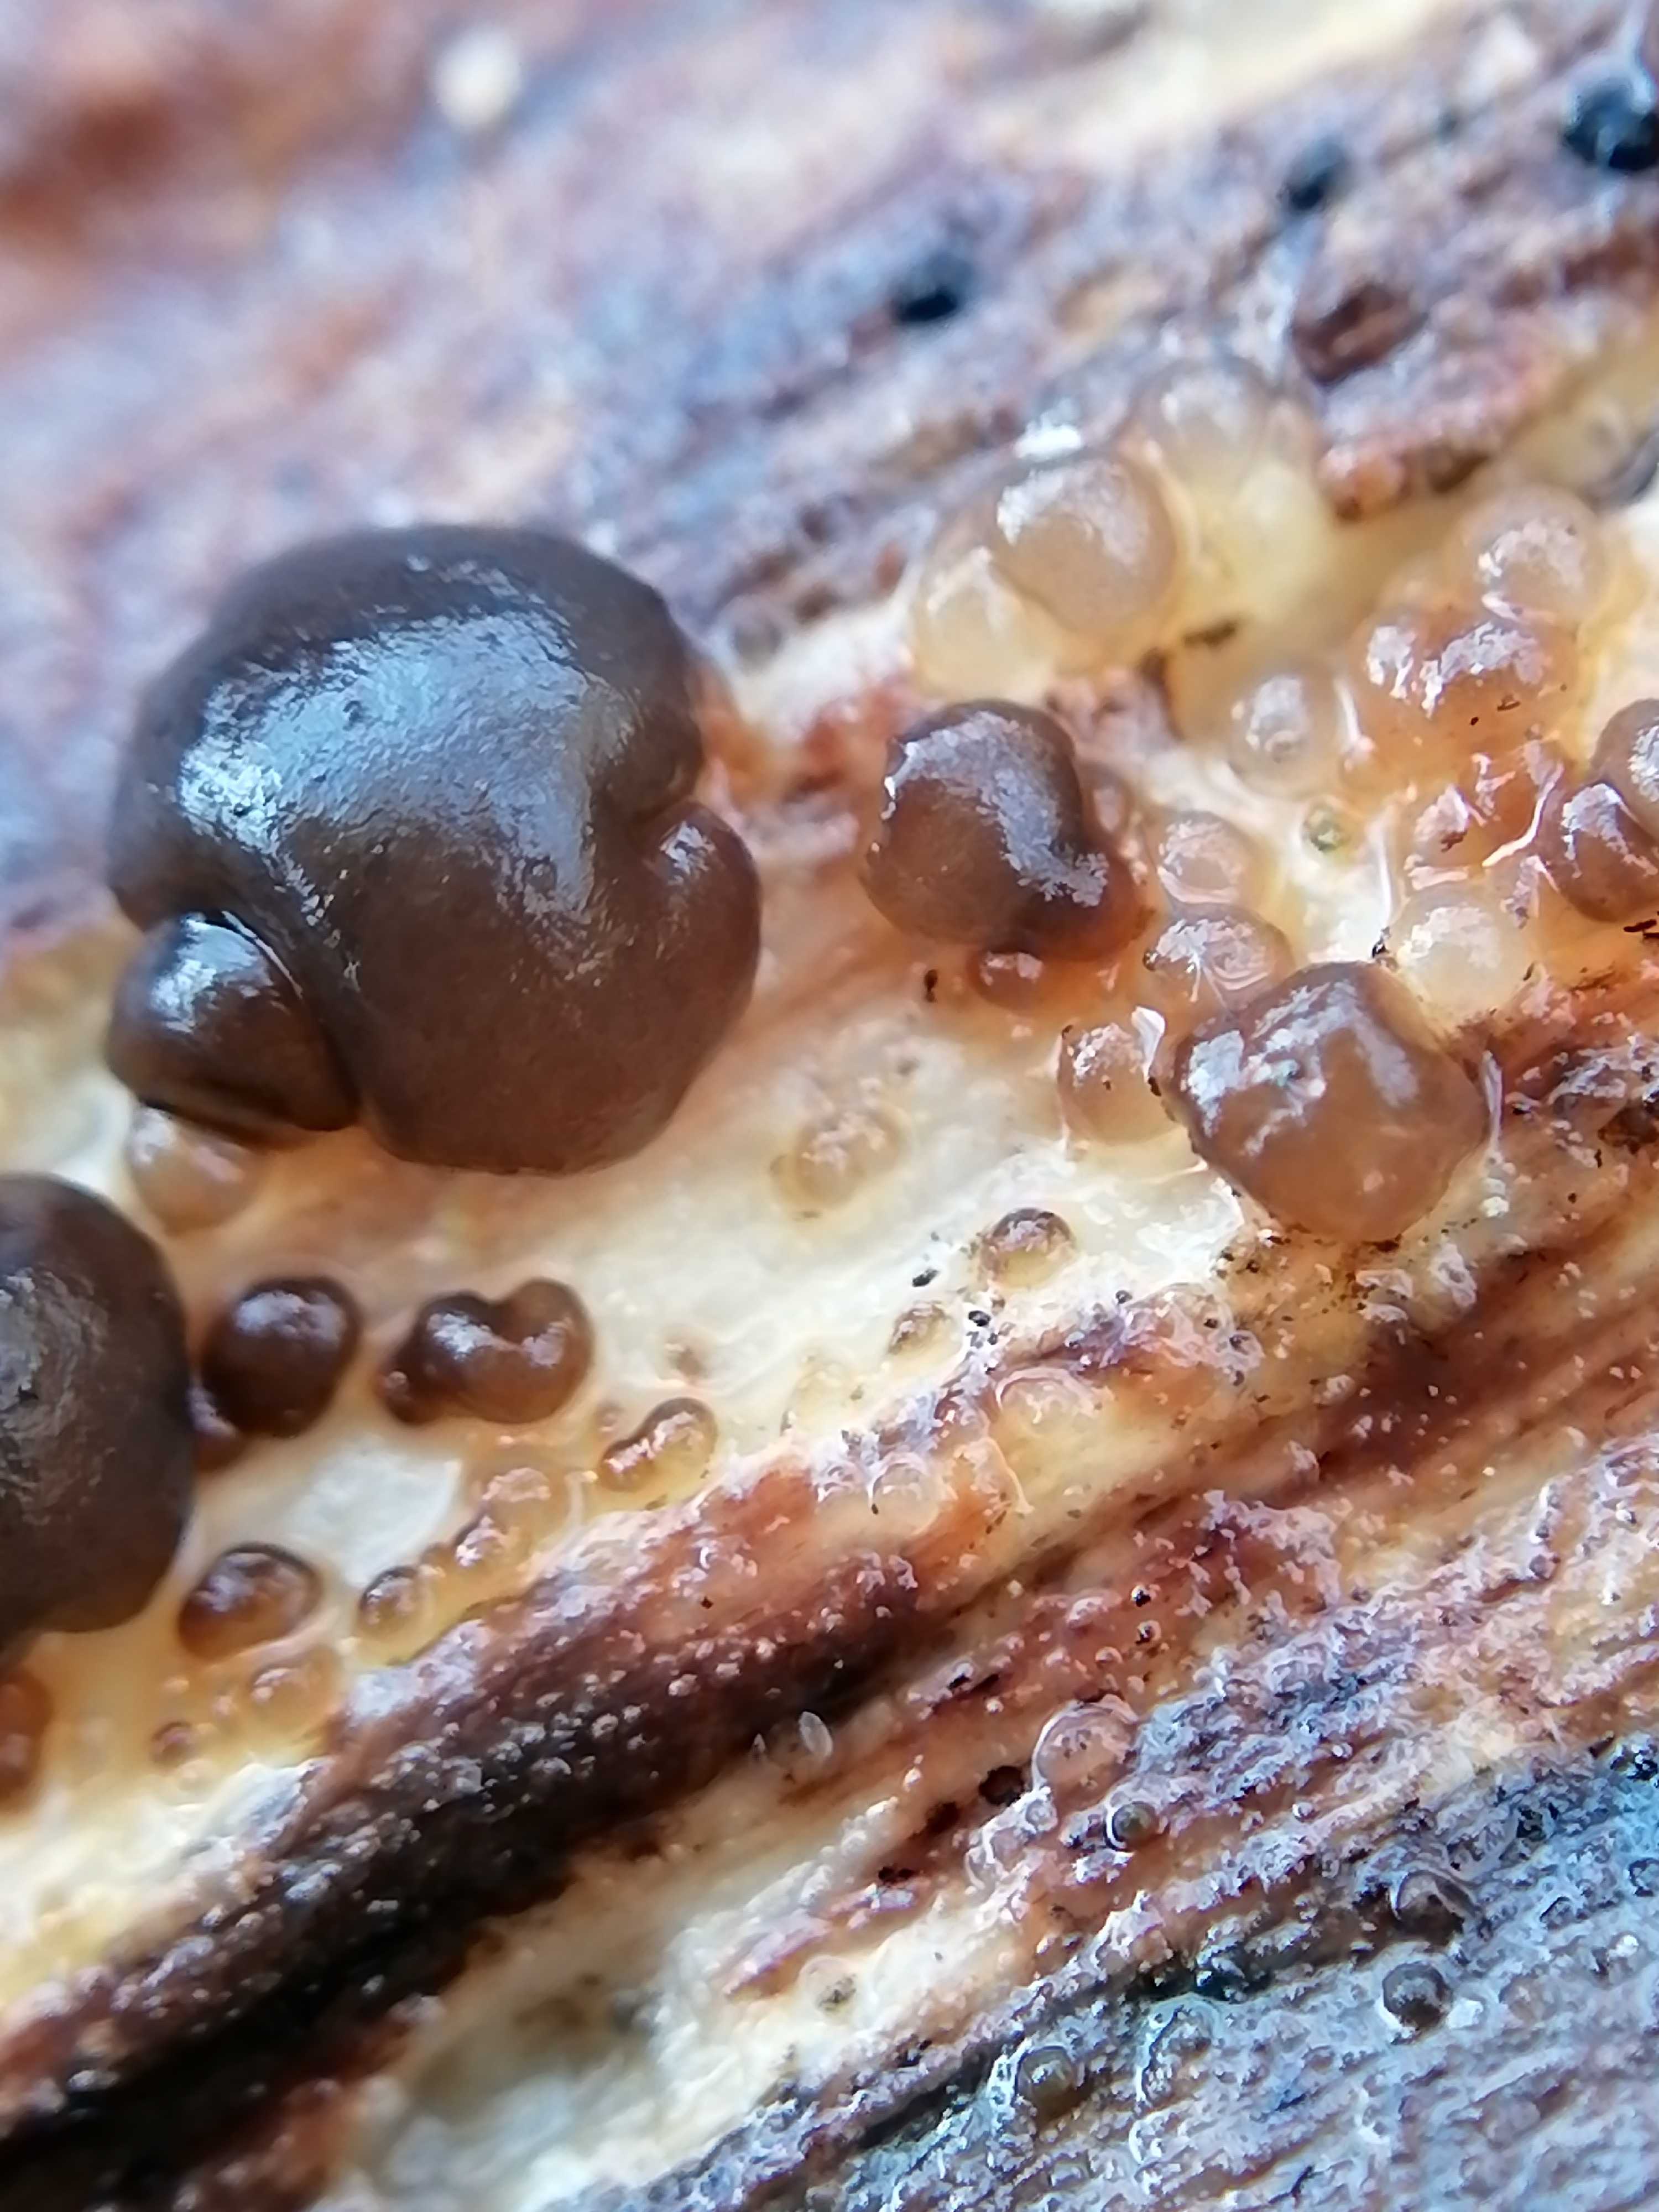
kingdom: Fungi
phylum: Basidiomycota
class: Tremellomycetes
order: Tremellales
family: Exidiaceae
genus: Exidia
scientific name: Exidia
